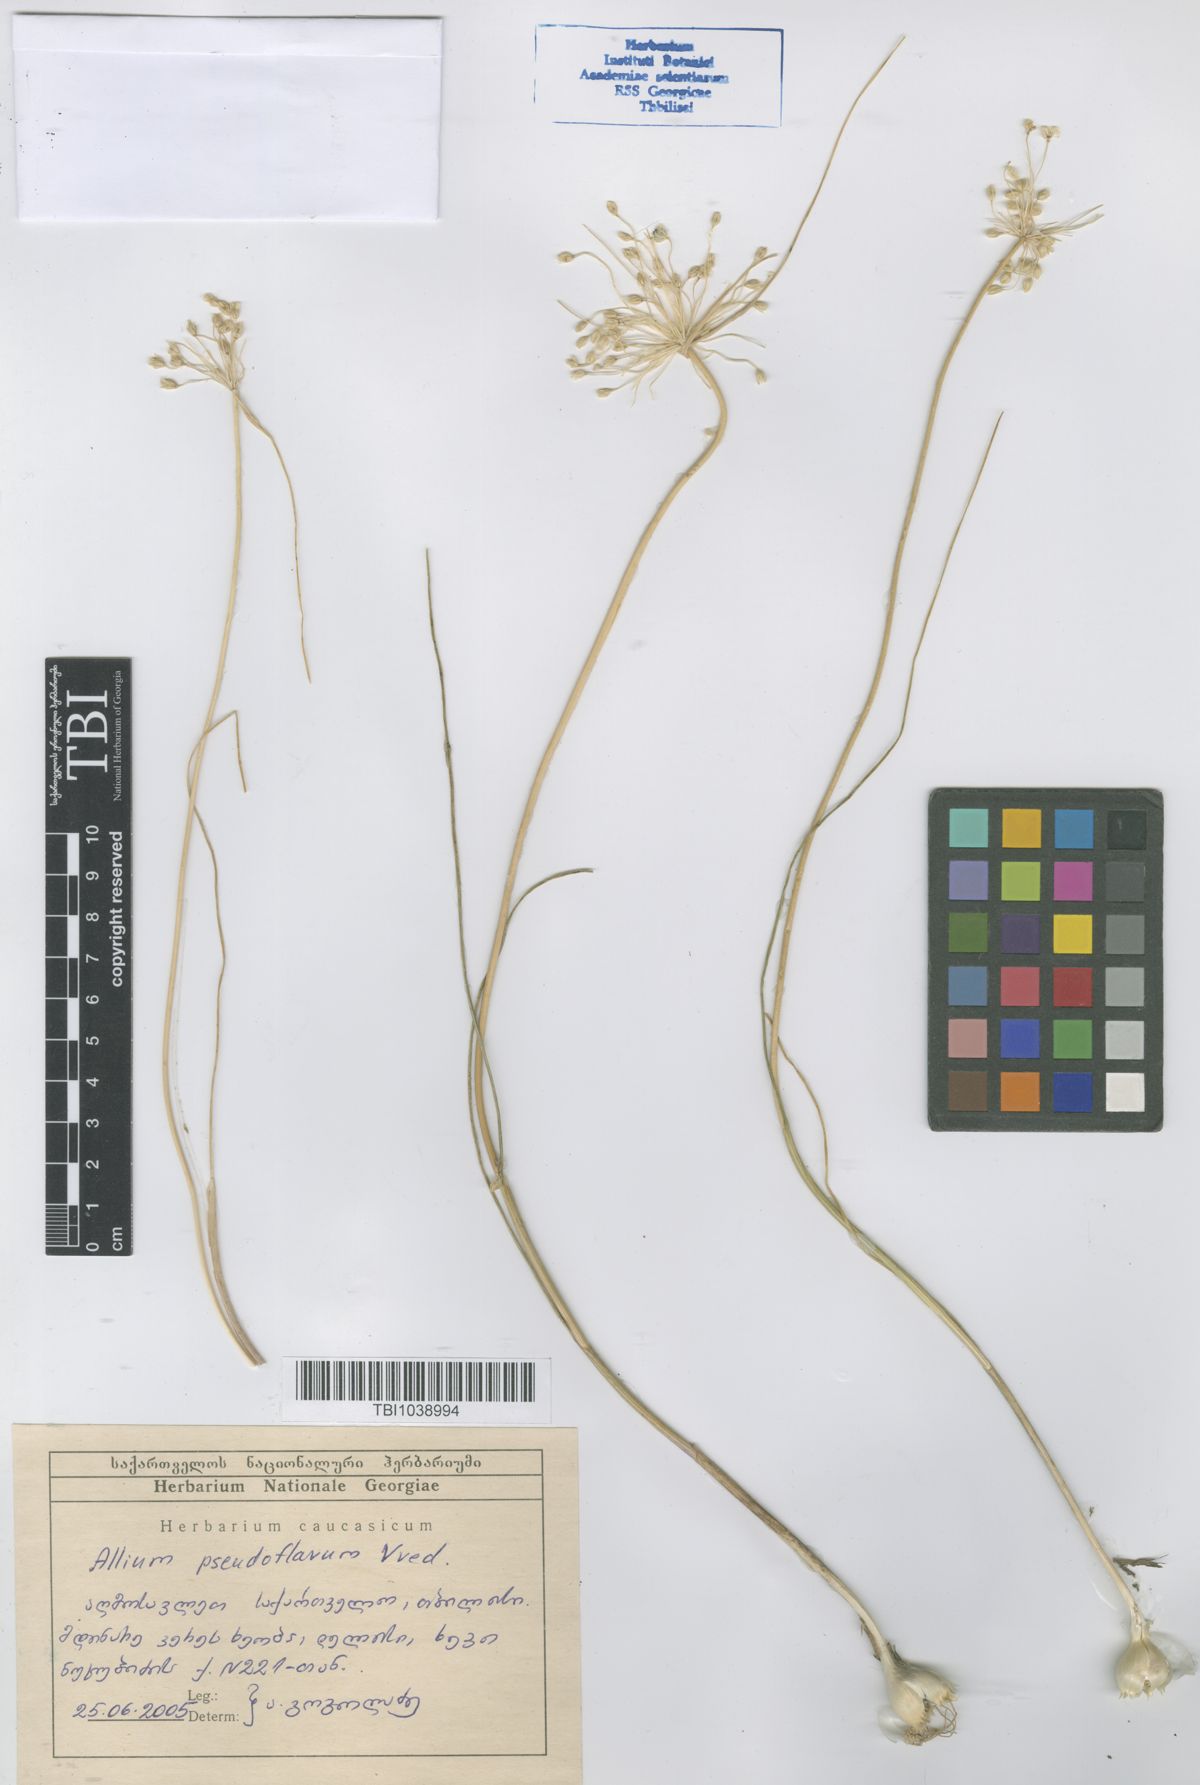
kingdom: Plantae
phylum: Tracheophyta
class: Liliopsida
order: Asparagales
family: Amaryllidaceae
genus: Allium
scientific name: Allium pseudoflavum
